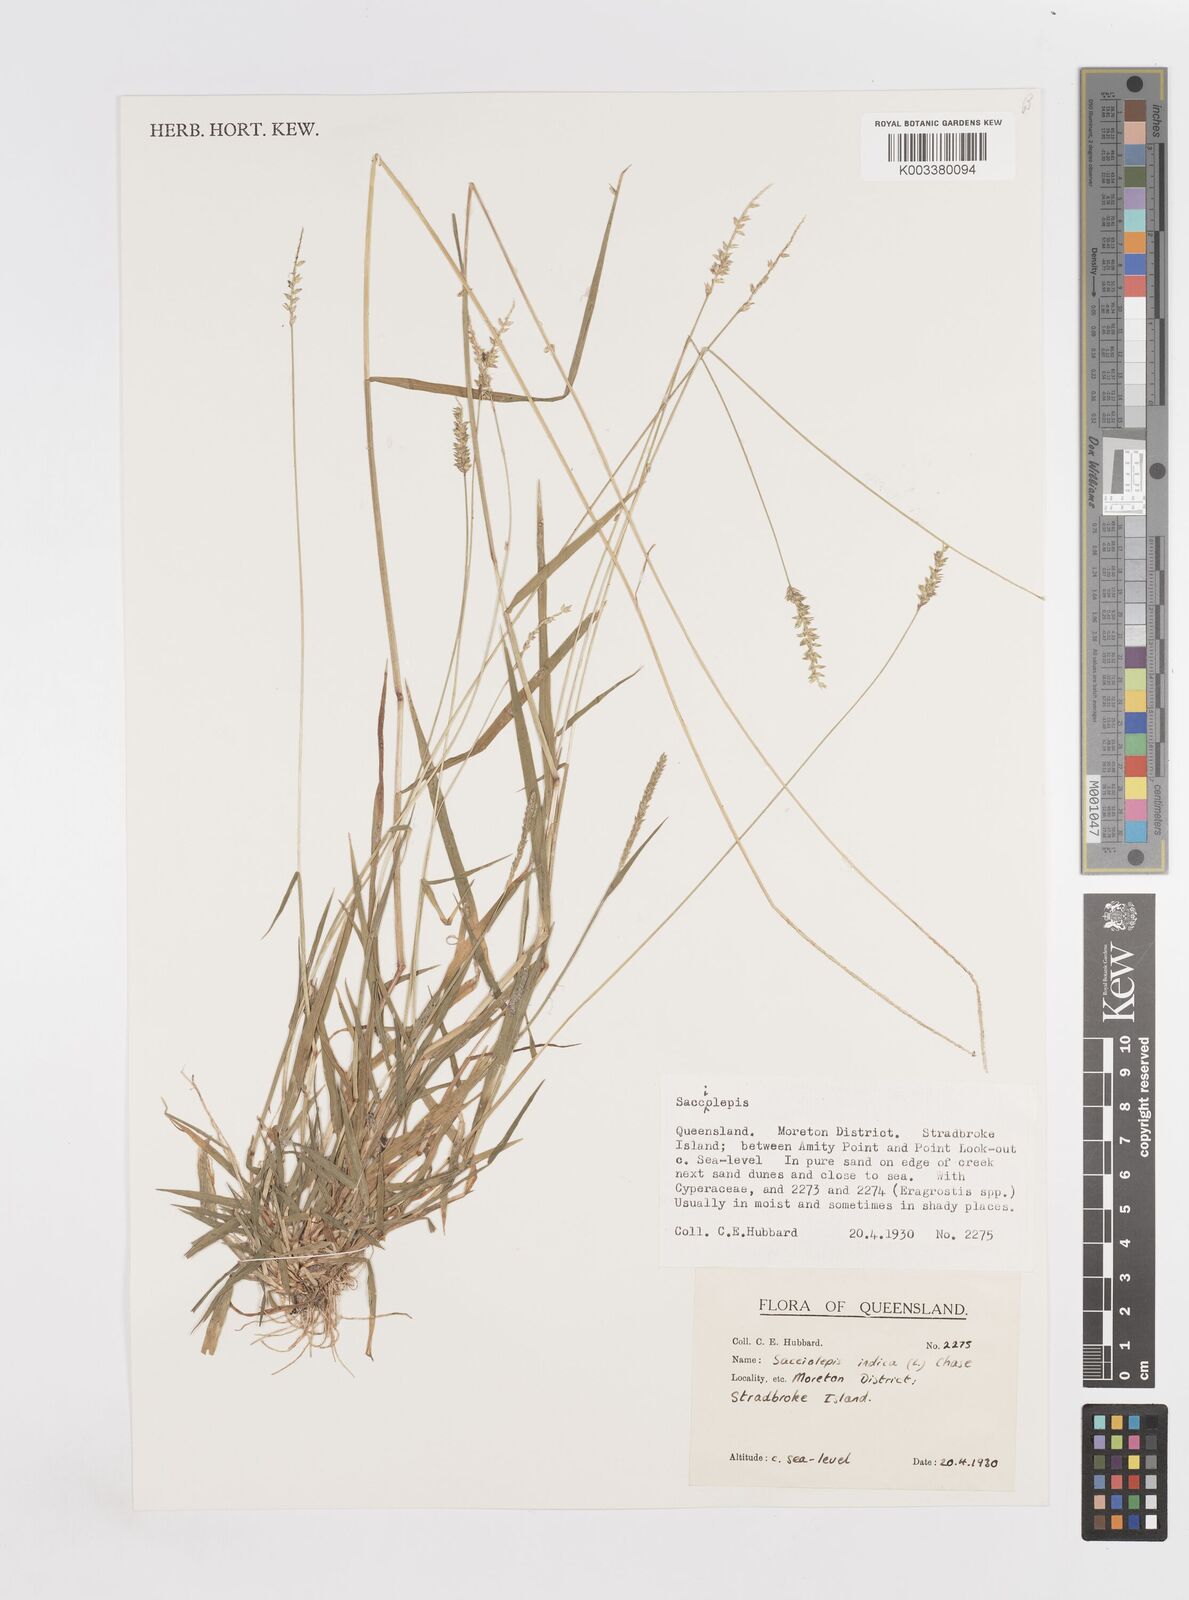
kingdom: Plantae
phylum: Tracheophyta
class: Liliopsida
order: Poales
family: Poaceae
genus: Sacciolepis
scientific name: Sacciolepis indica
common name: Glenwoodgrass
